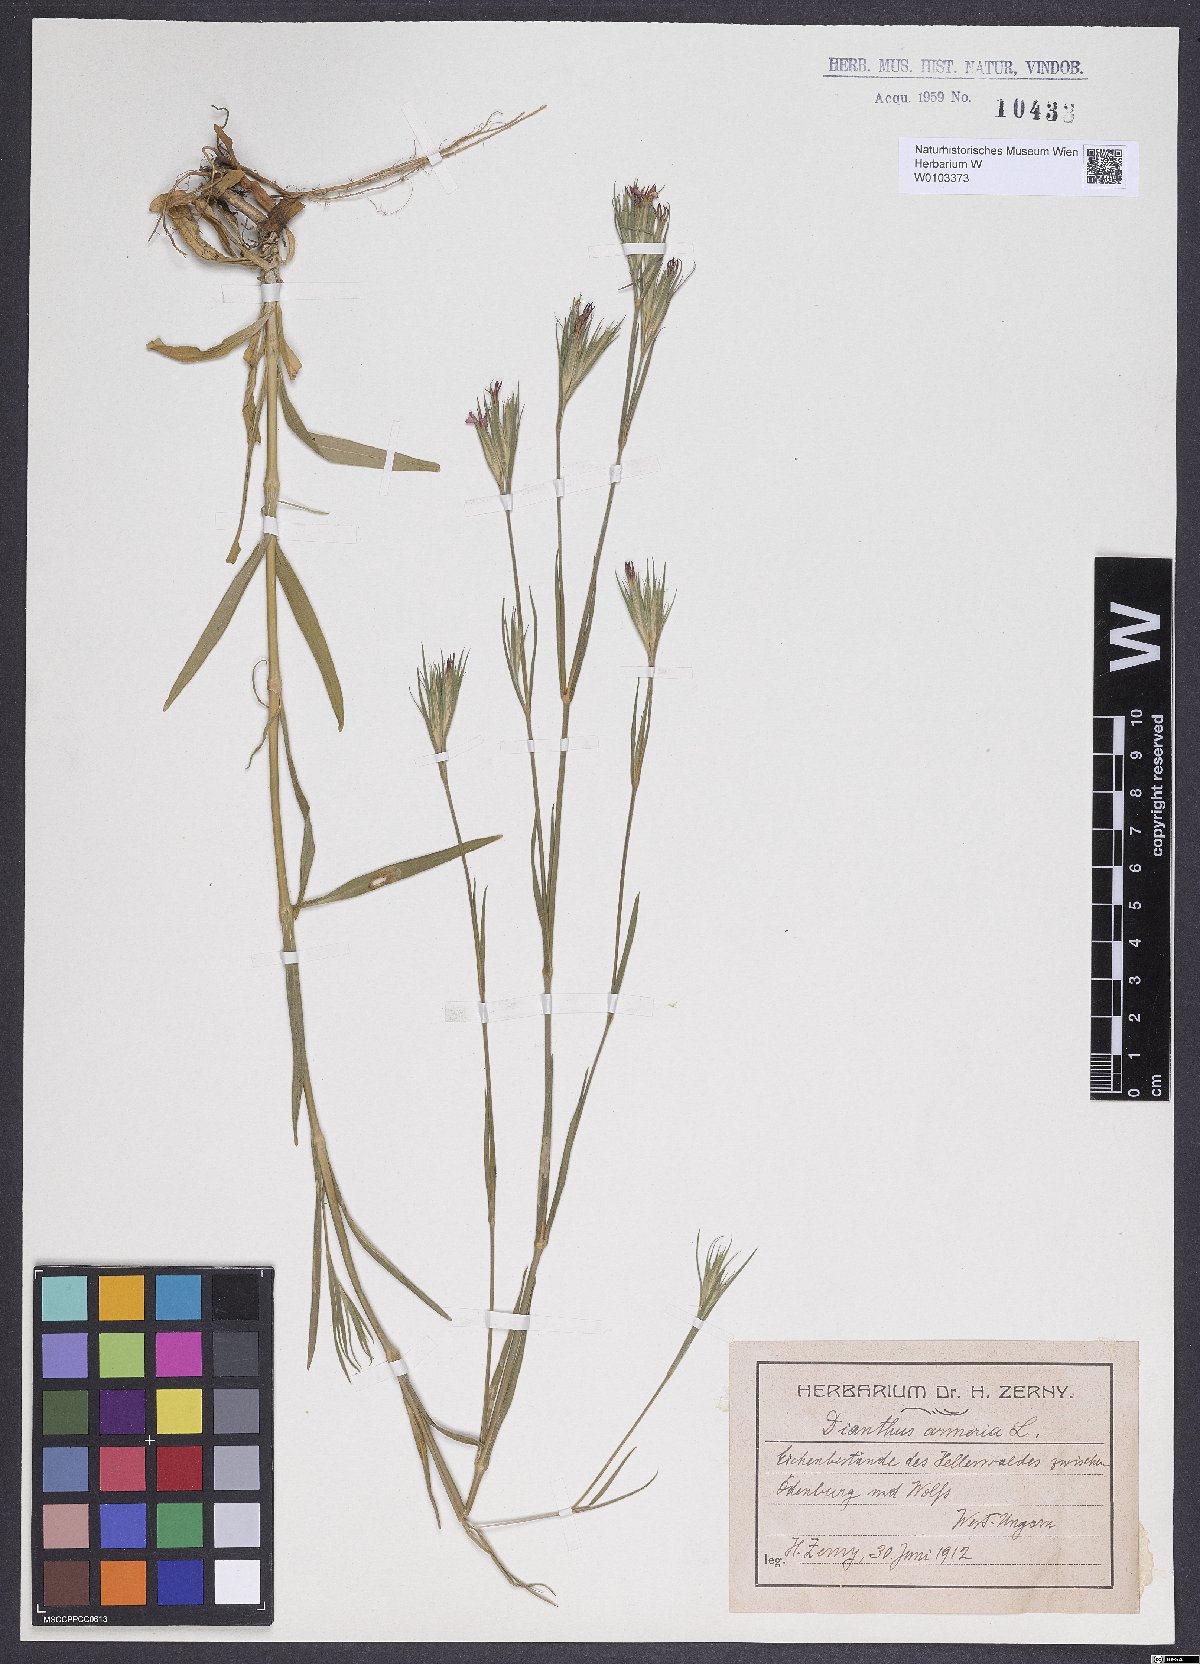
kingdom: Plantae
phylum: Tracheophyta
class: Magnoliopsida
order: Caryophyllales
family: Caryophyllaceae
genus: Dianthus
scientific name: Dianthus armeria
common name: Deptford pink
